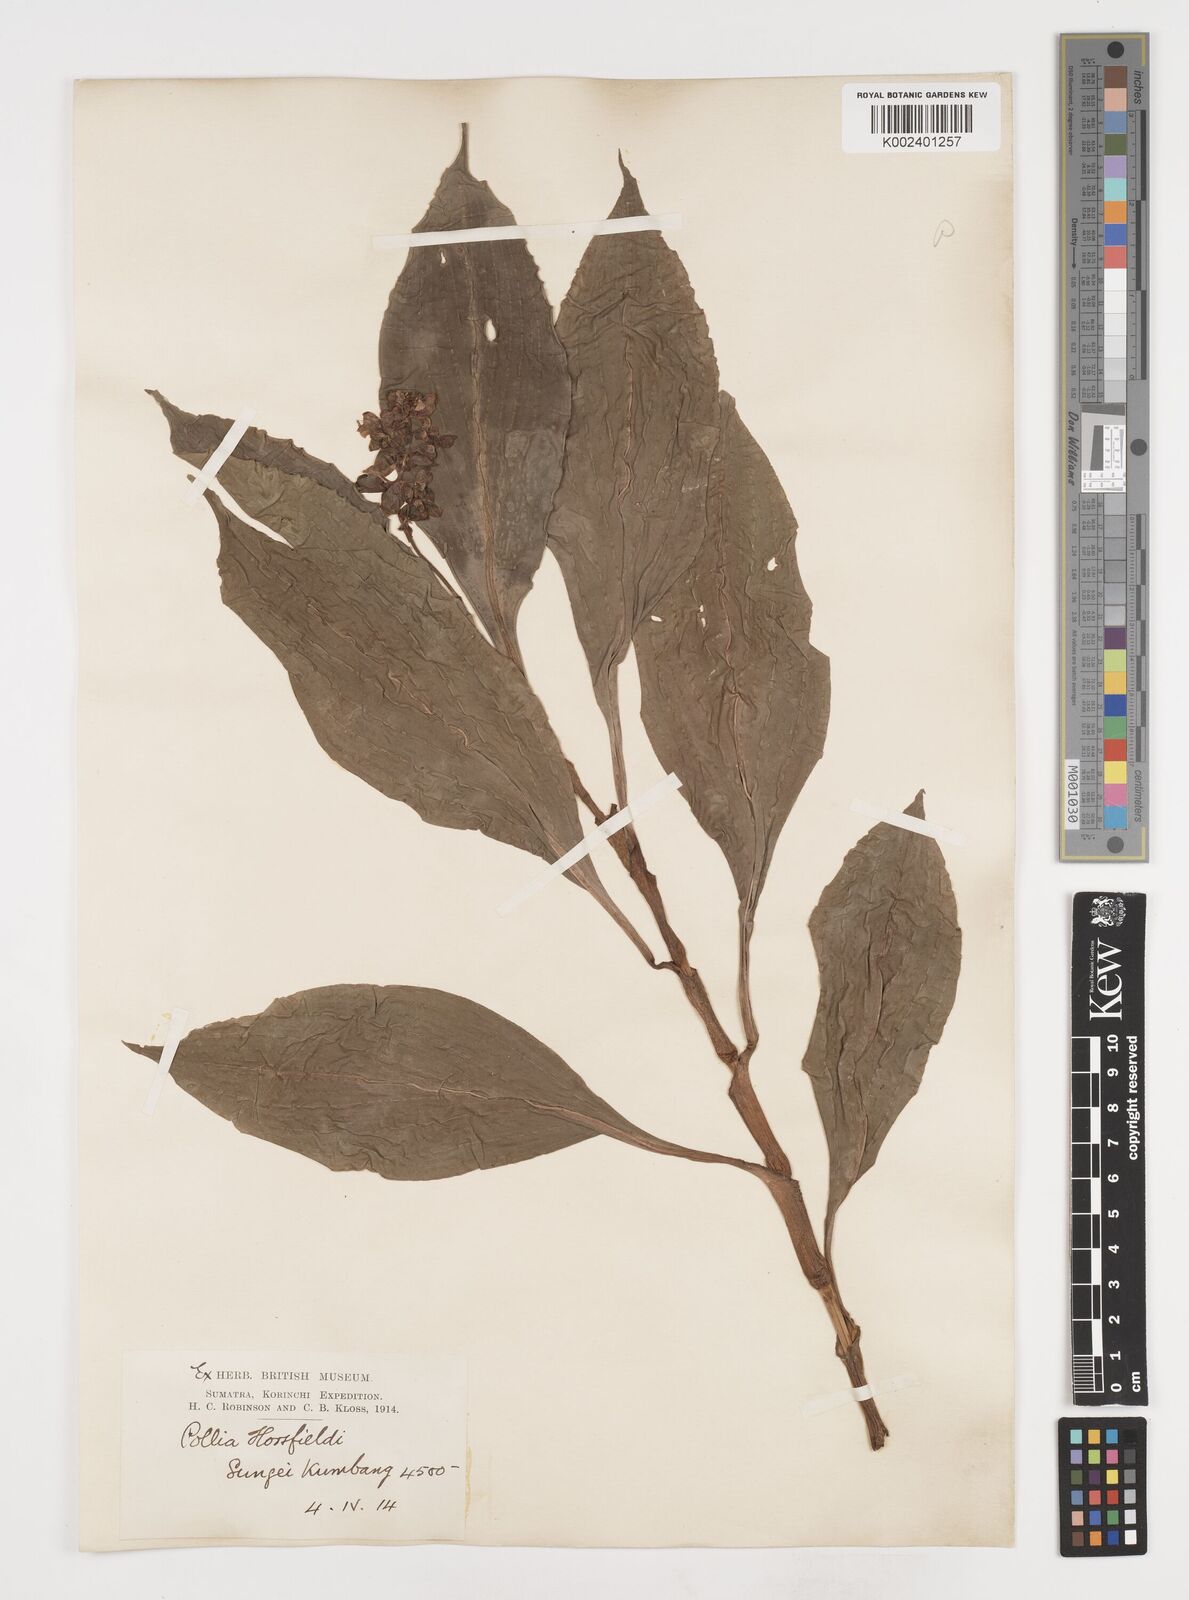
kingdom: Plantae
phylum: Tracheophyta
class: Liliopsida
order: Commelinales
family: Commelinaceae
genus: Pollia
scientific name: Pollia horsfieldii
